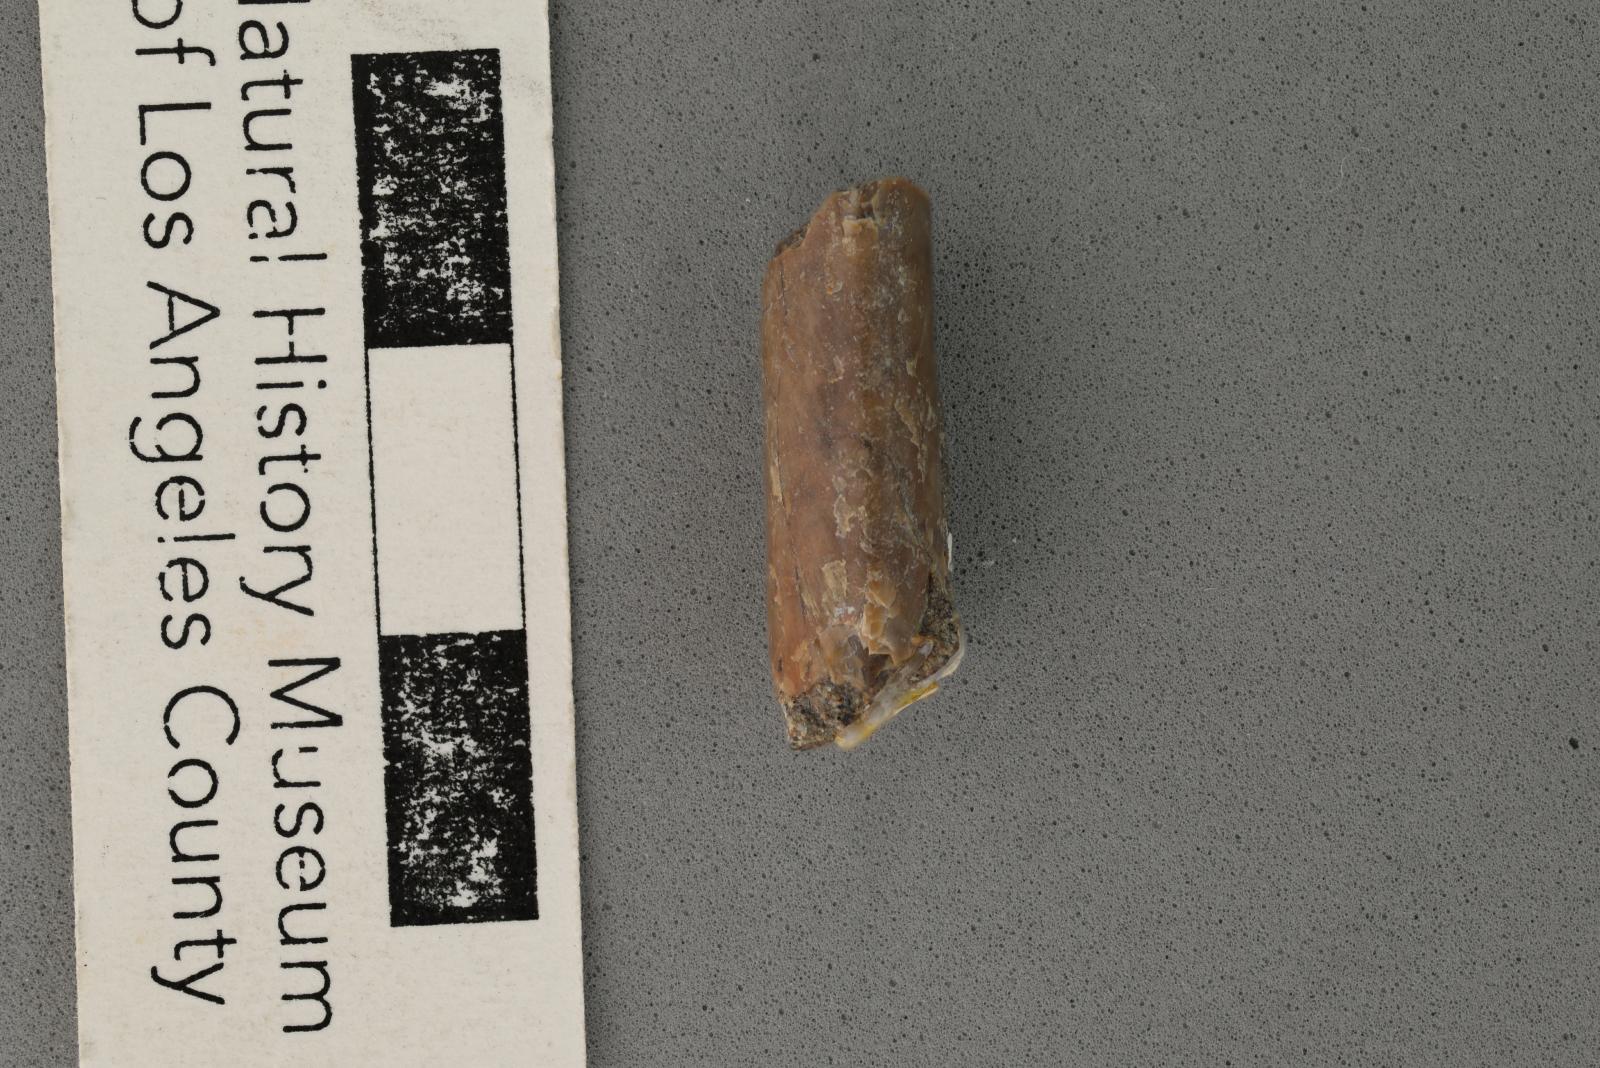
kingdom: Animalia
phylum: Mollusca
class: Cephalopoda
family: Baculitidae
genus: Baculites
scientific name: Baculites kirki
